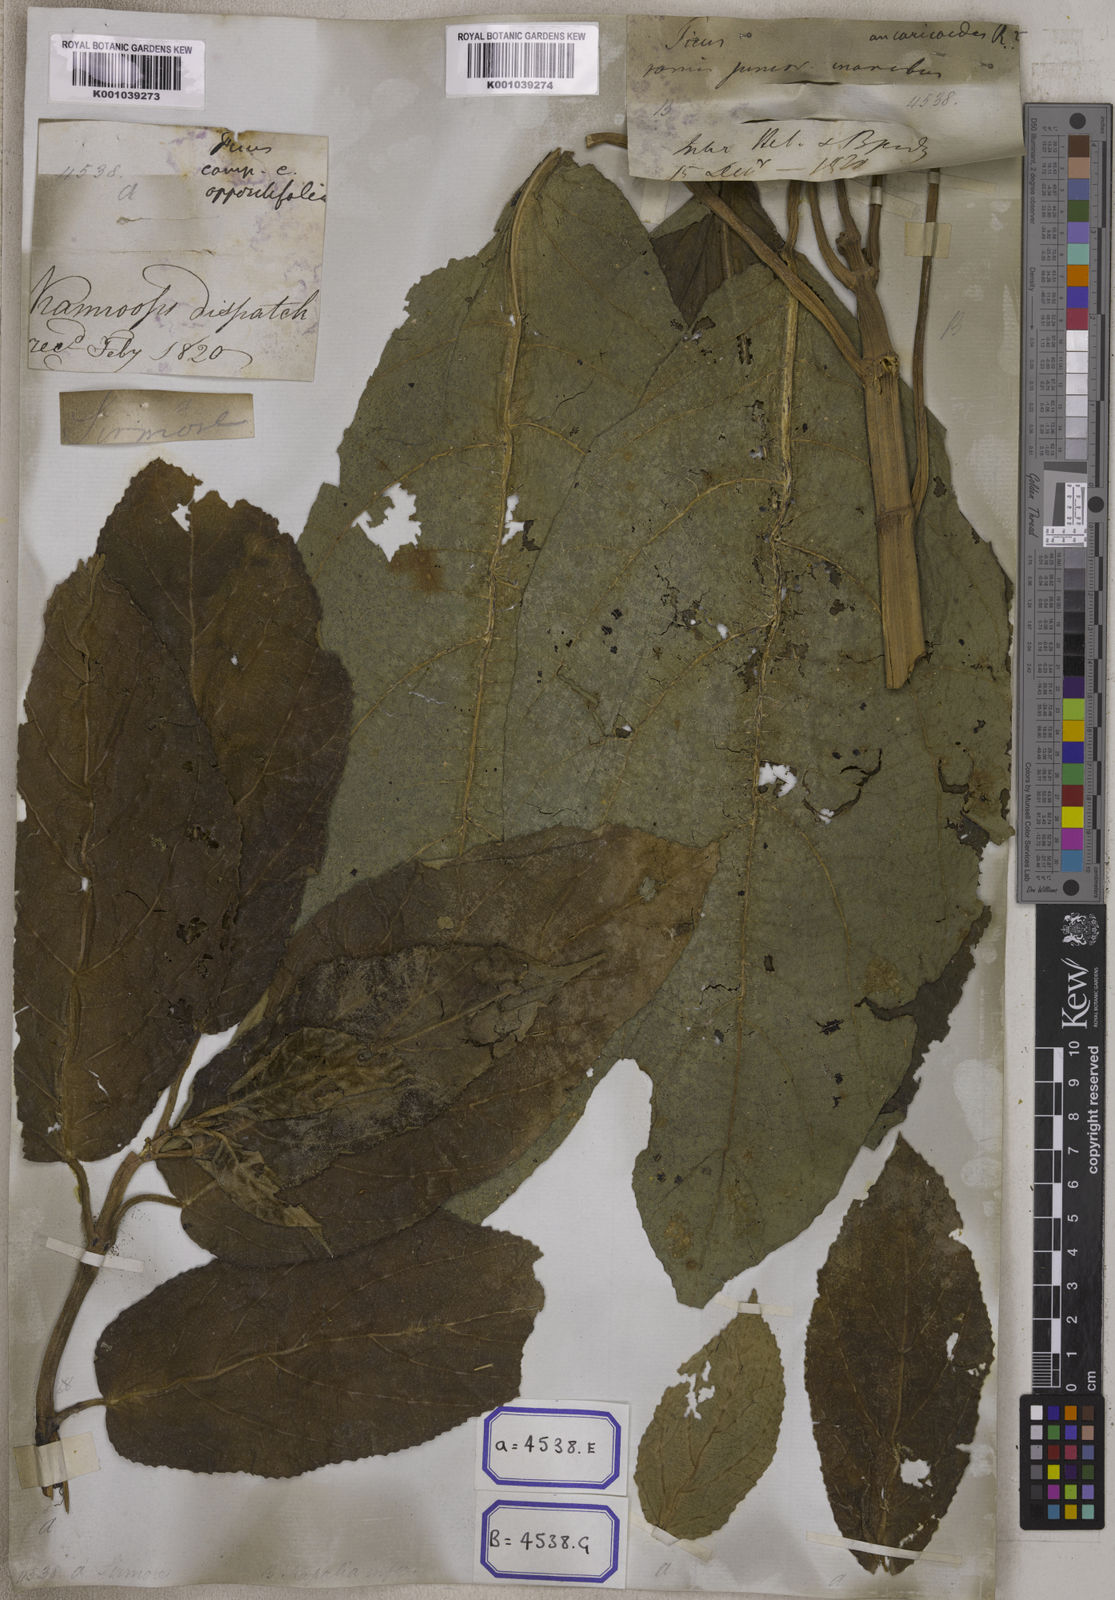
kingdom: Plantae
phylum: Tracheophyta
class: Magnoliopsida
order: Rosales
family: Moraceae
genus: Ficus
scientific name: Ficus hispida
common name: Hairy fig
